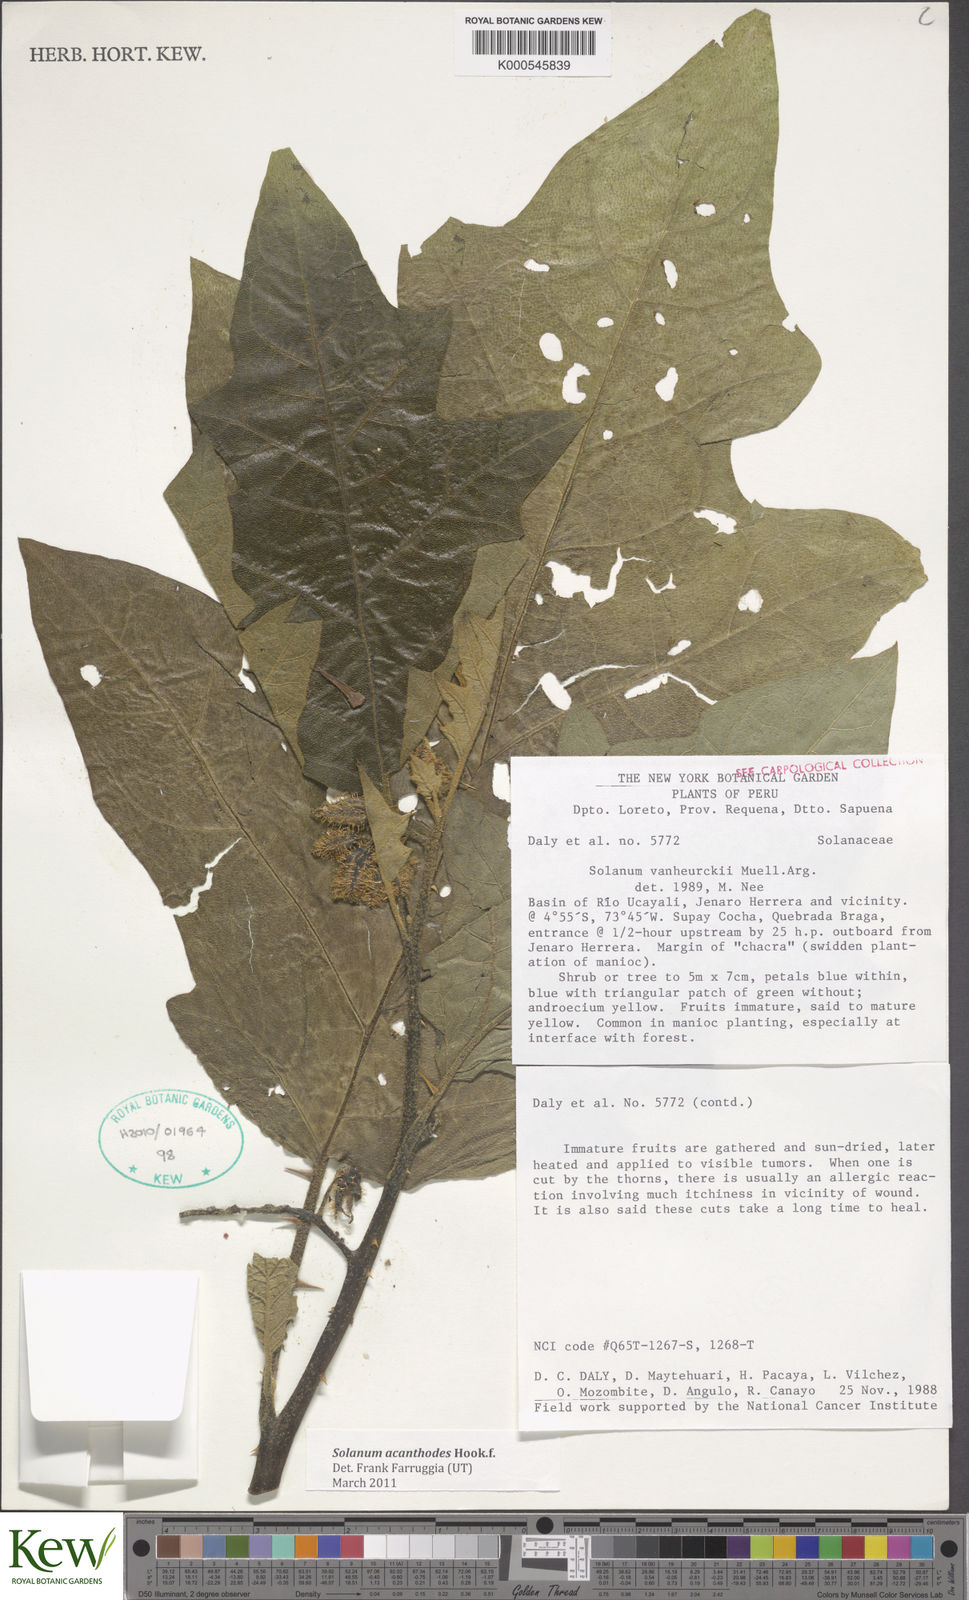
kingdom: Plantae
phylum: Tracheophyta
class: Magnoliopsida
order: Solanales
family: Solanaceae
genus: Solanum
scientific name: Solanum vanheurckii
